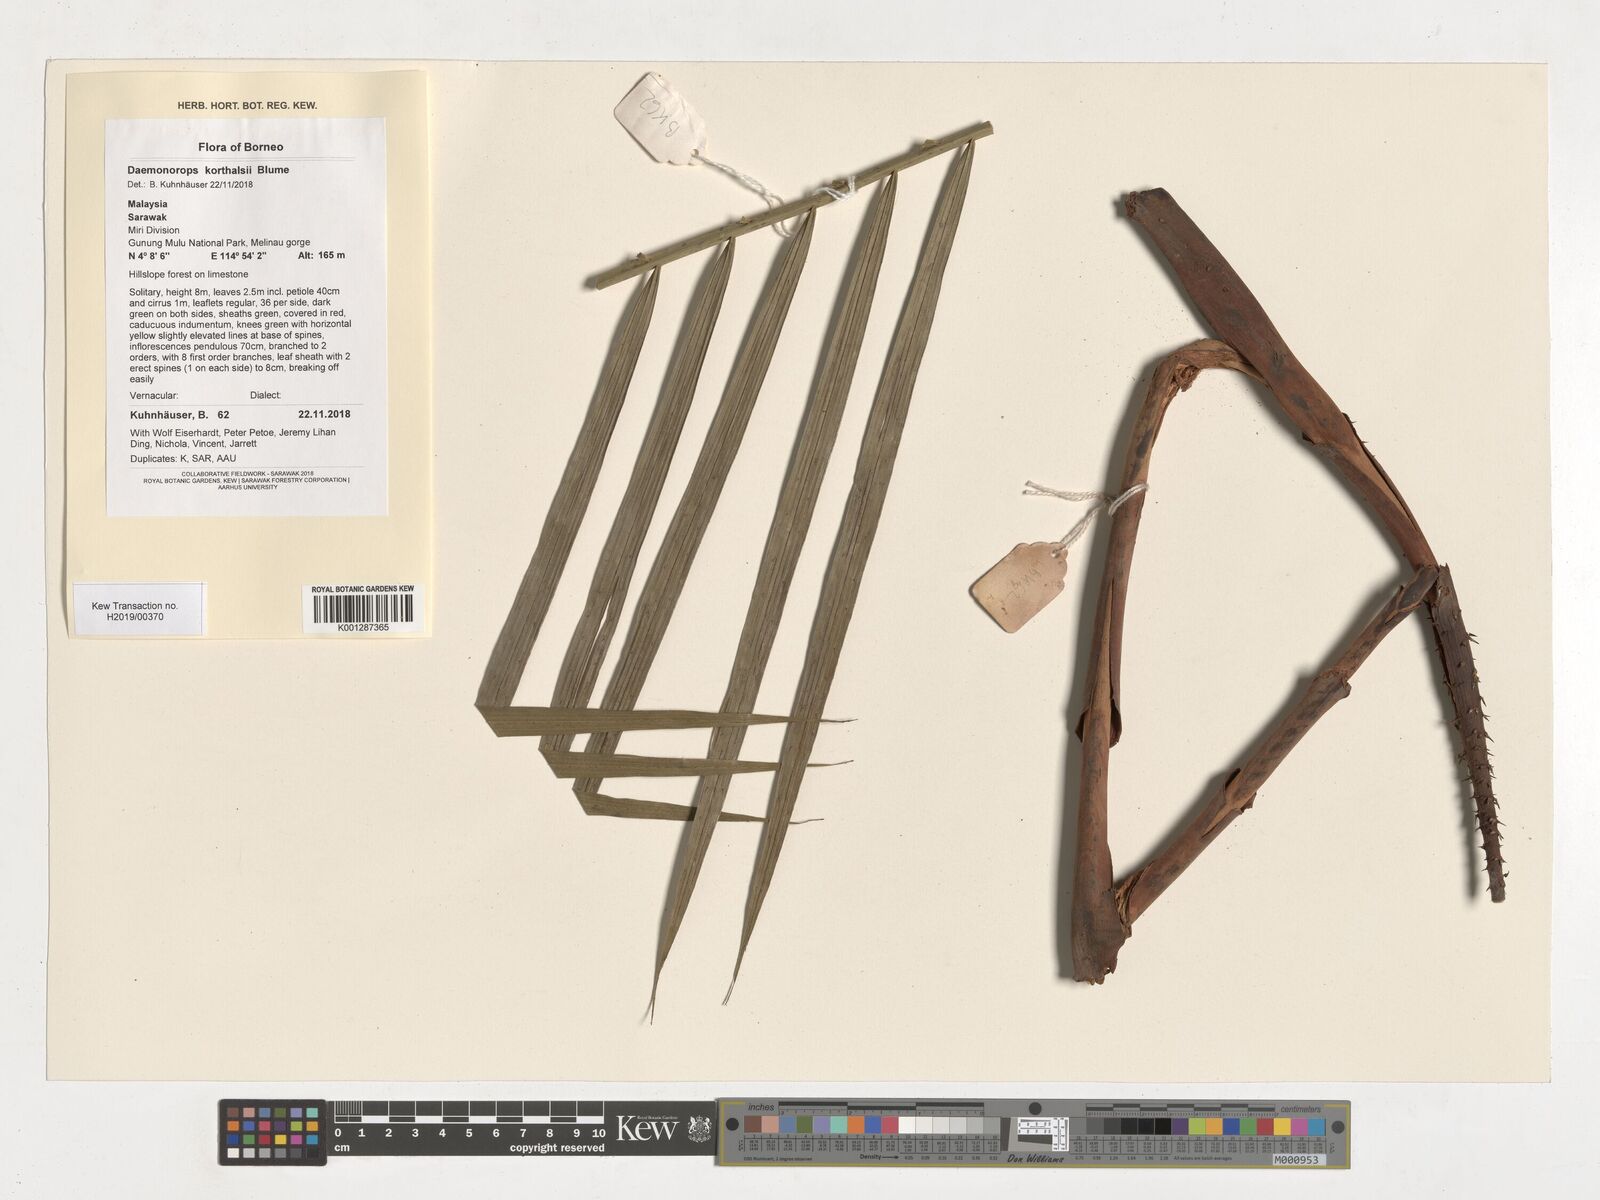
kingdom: Plantae
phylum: Tracheophyta
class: Liliopsida
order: Arecales
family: Arecaceae
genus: Calamus
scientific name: Calamus
